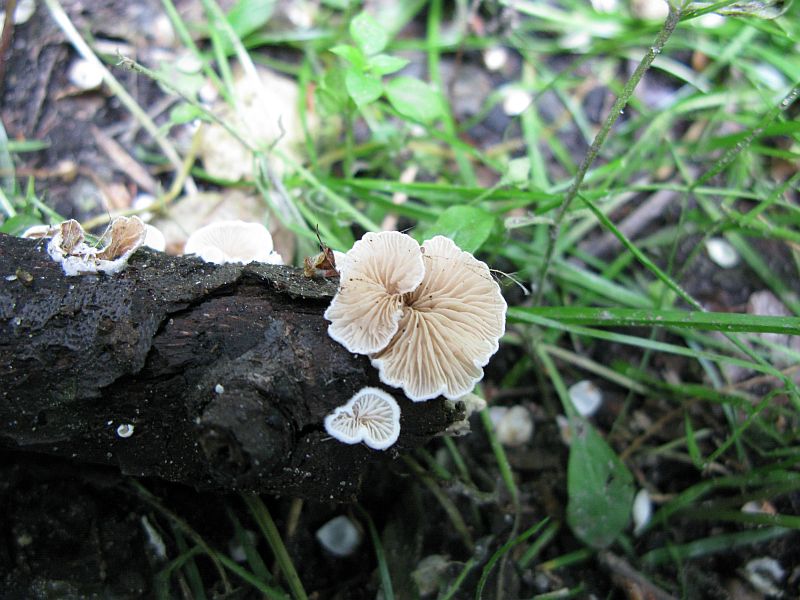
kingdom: Fungi
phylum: Basidiomycota
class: Agaricomycetes
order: Agaricales
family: Crepidotaceae
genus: Crepidotus
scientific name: Crepidotus cesatii
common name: almindelig muslingesvamp
